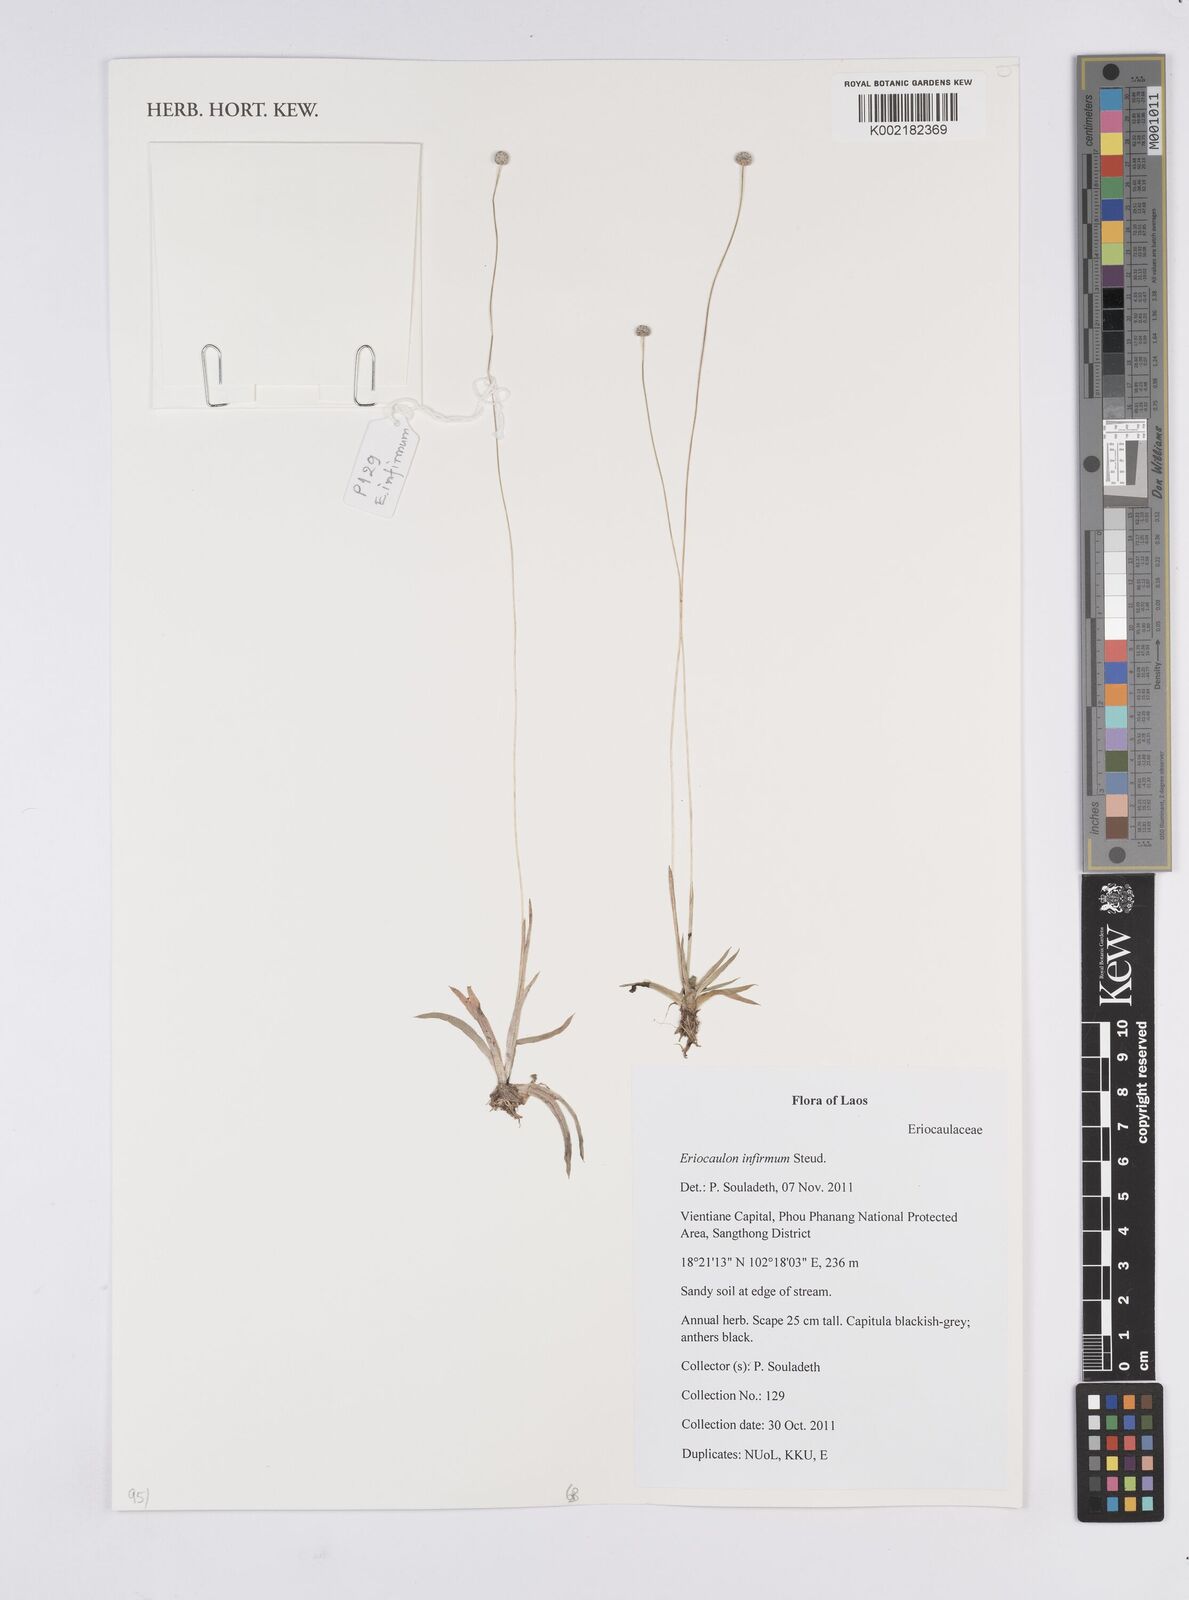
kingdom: Plantae
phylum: Tracheophyta
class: Liliopsida
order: Poales
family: Eriocaulaceae
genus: Eriocaulon
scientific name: Eriocaulon infirmum
